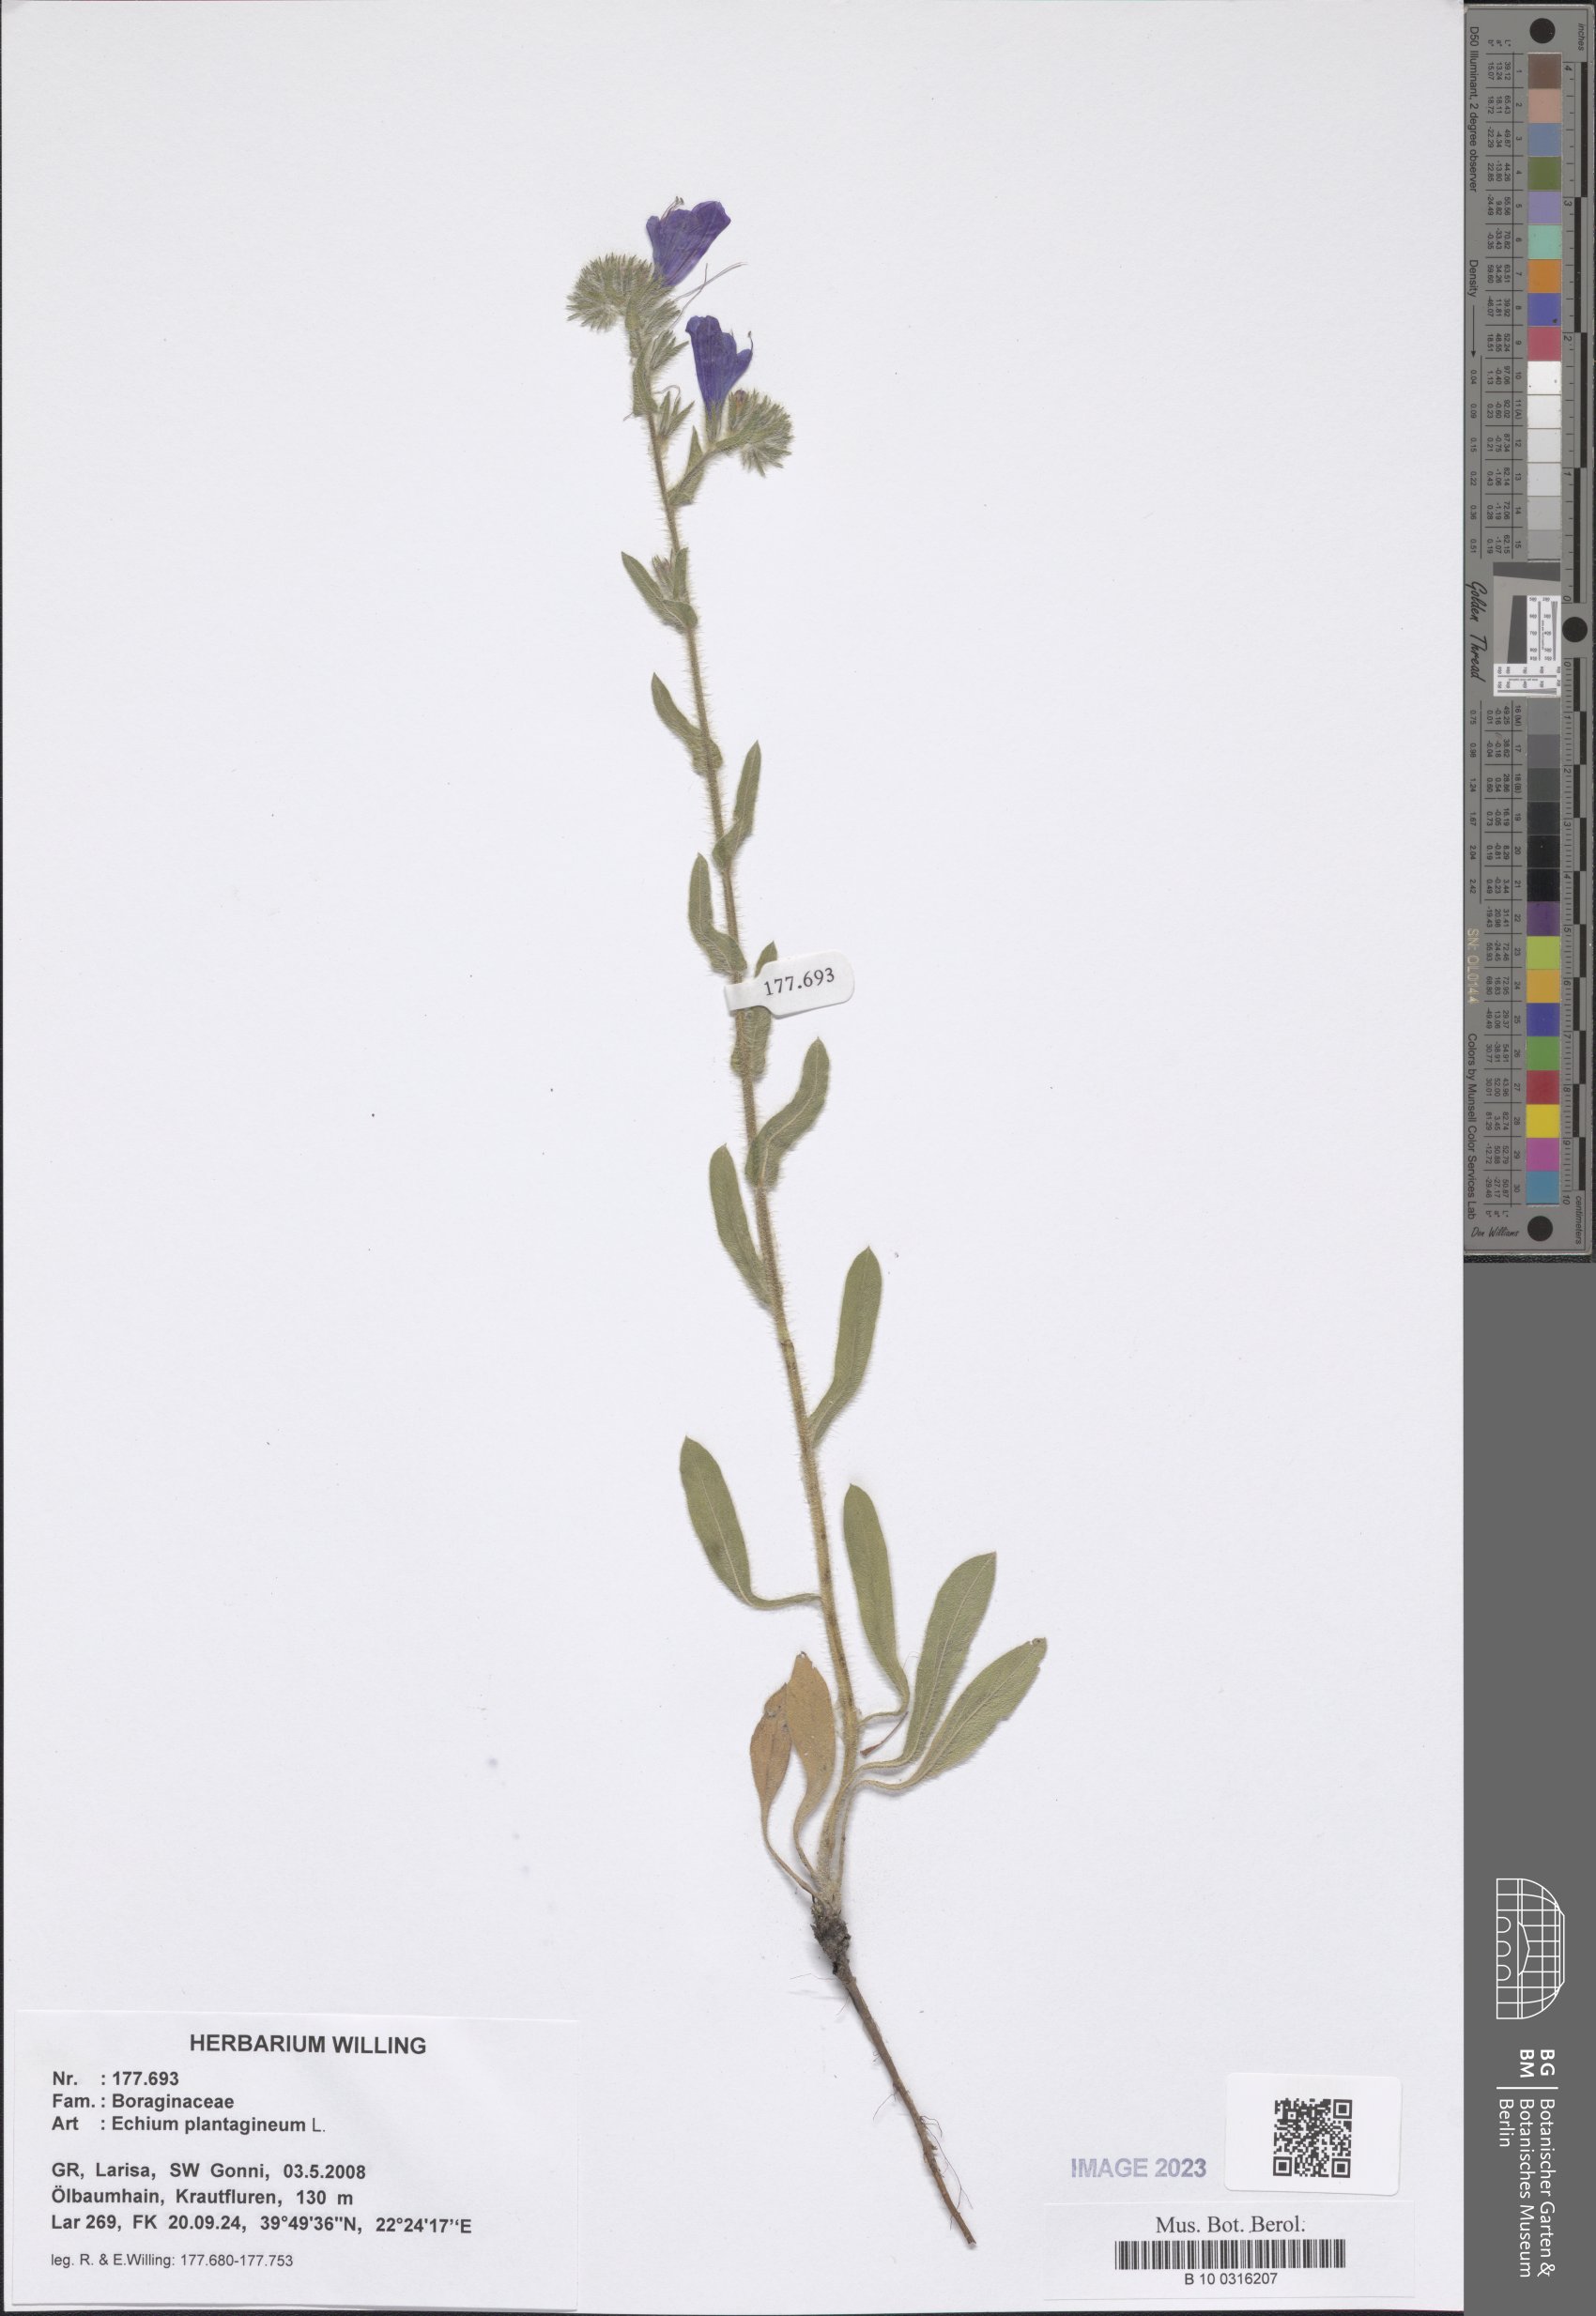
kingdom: Plantae
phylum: Tracheophyta
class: Magnoliopsida
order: Boraginales
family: Boraginaceae
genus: Echium
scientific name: Echium plantagineum
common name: Purple viper's-bugloss
